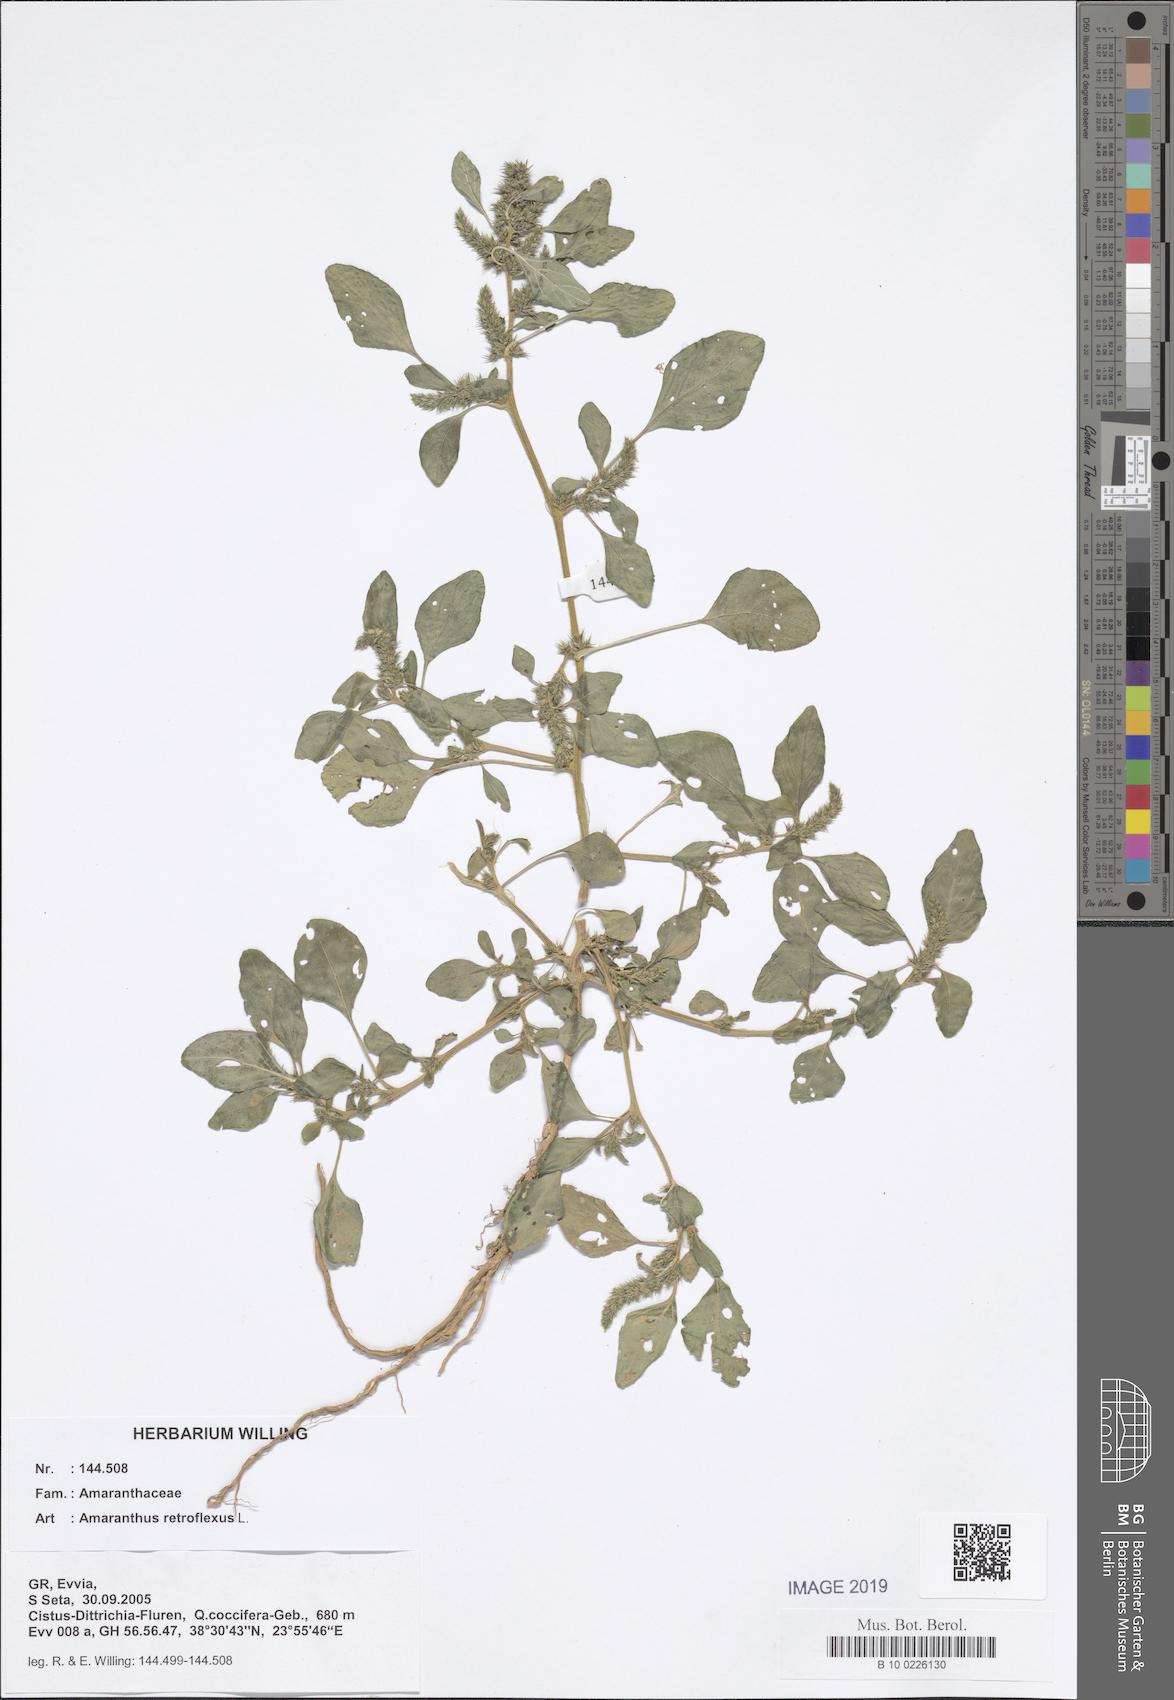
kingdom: Plantae
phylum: Tracheophyta
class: Magnoliopsida
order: Caryophyllales
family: Amaranthaceae
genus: Amaranthus
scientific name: Amaranthus retroflexus
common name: Redroot amaranth
